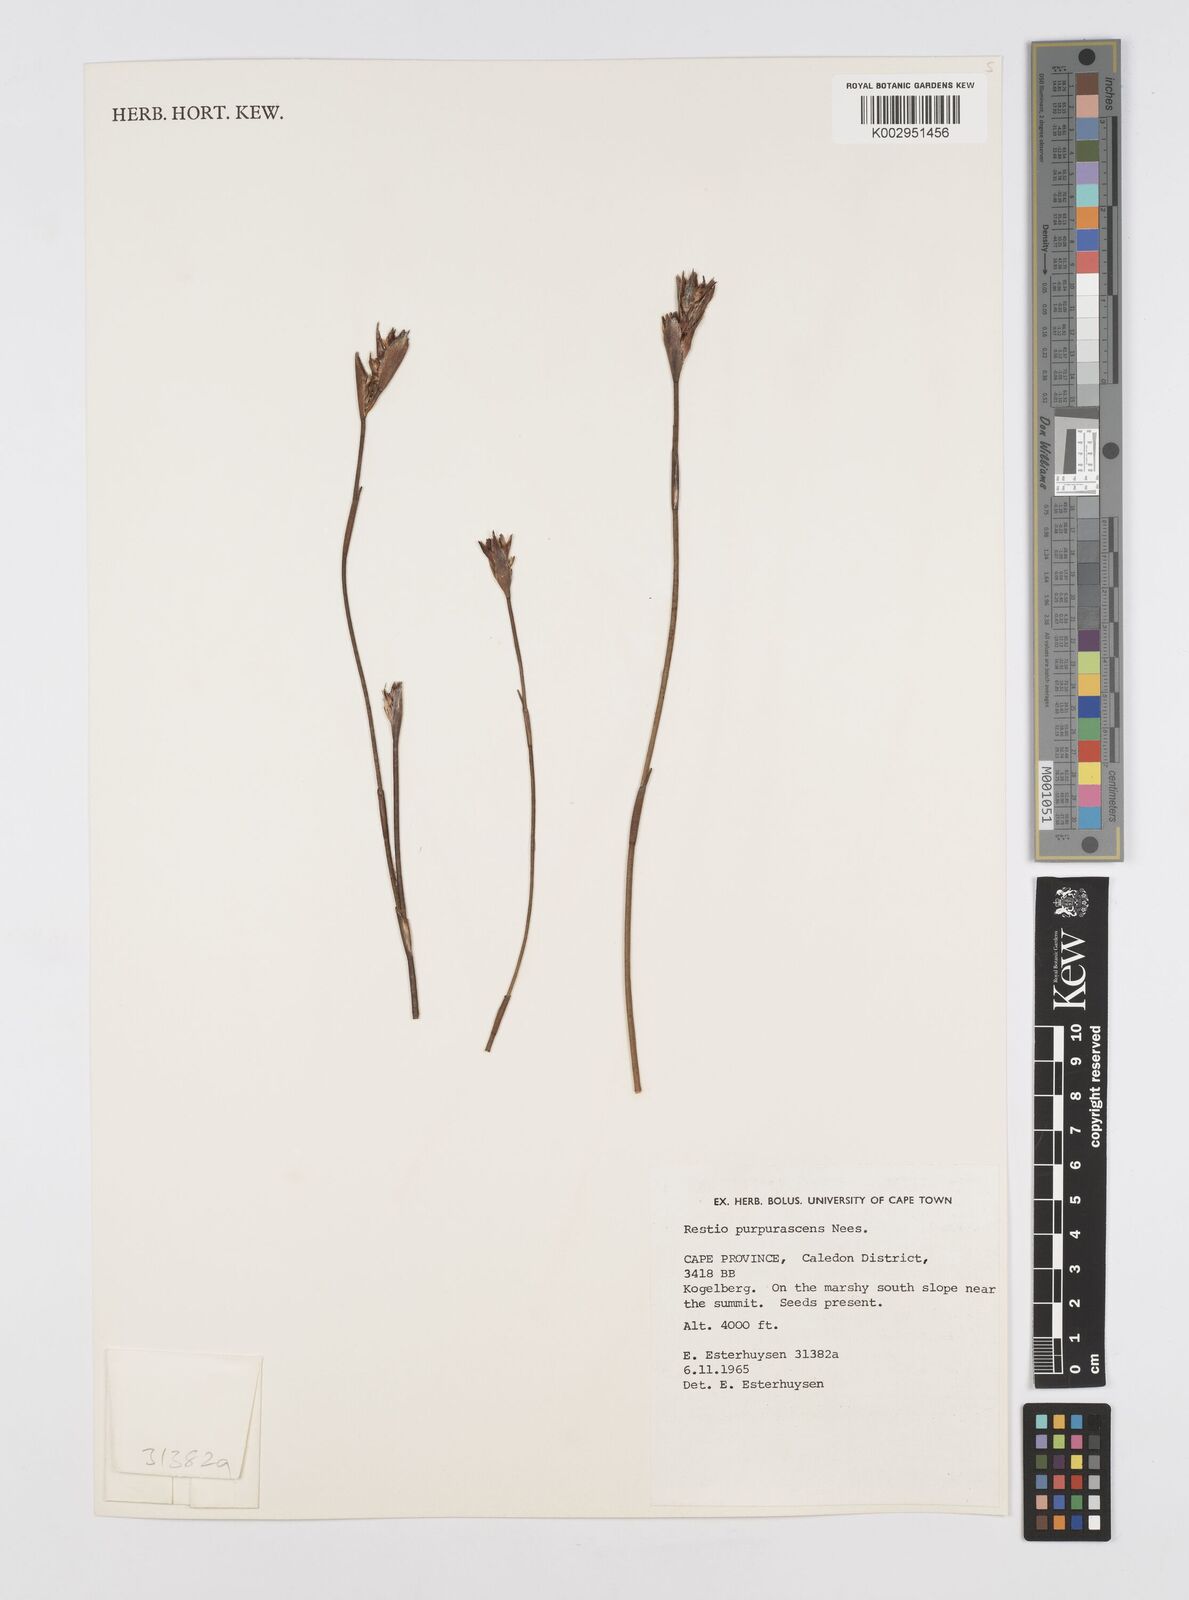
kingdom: Plantae
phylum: Tracheophyta
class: Liliopsida
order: Poales
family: Restionaceae
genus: Restio
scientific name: Restio purpurascens
